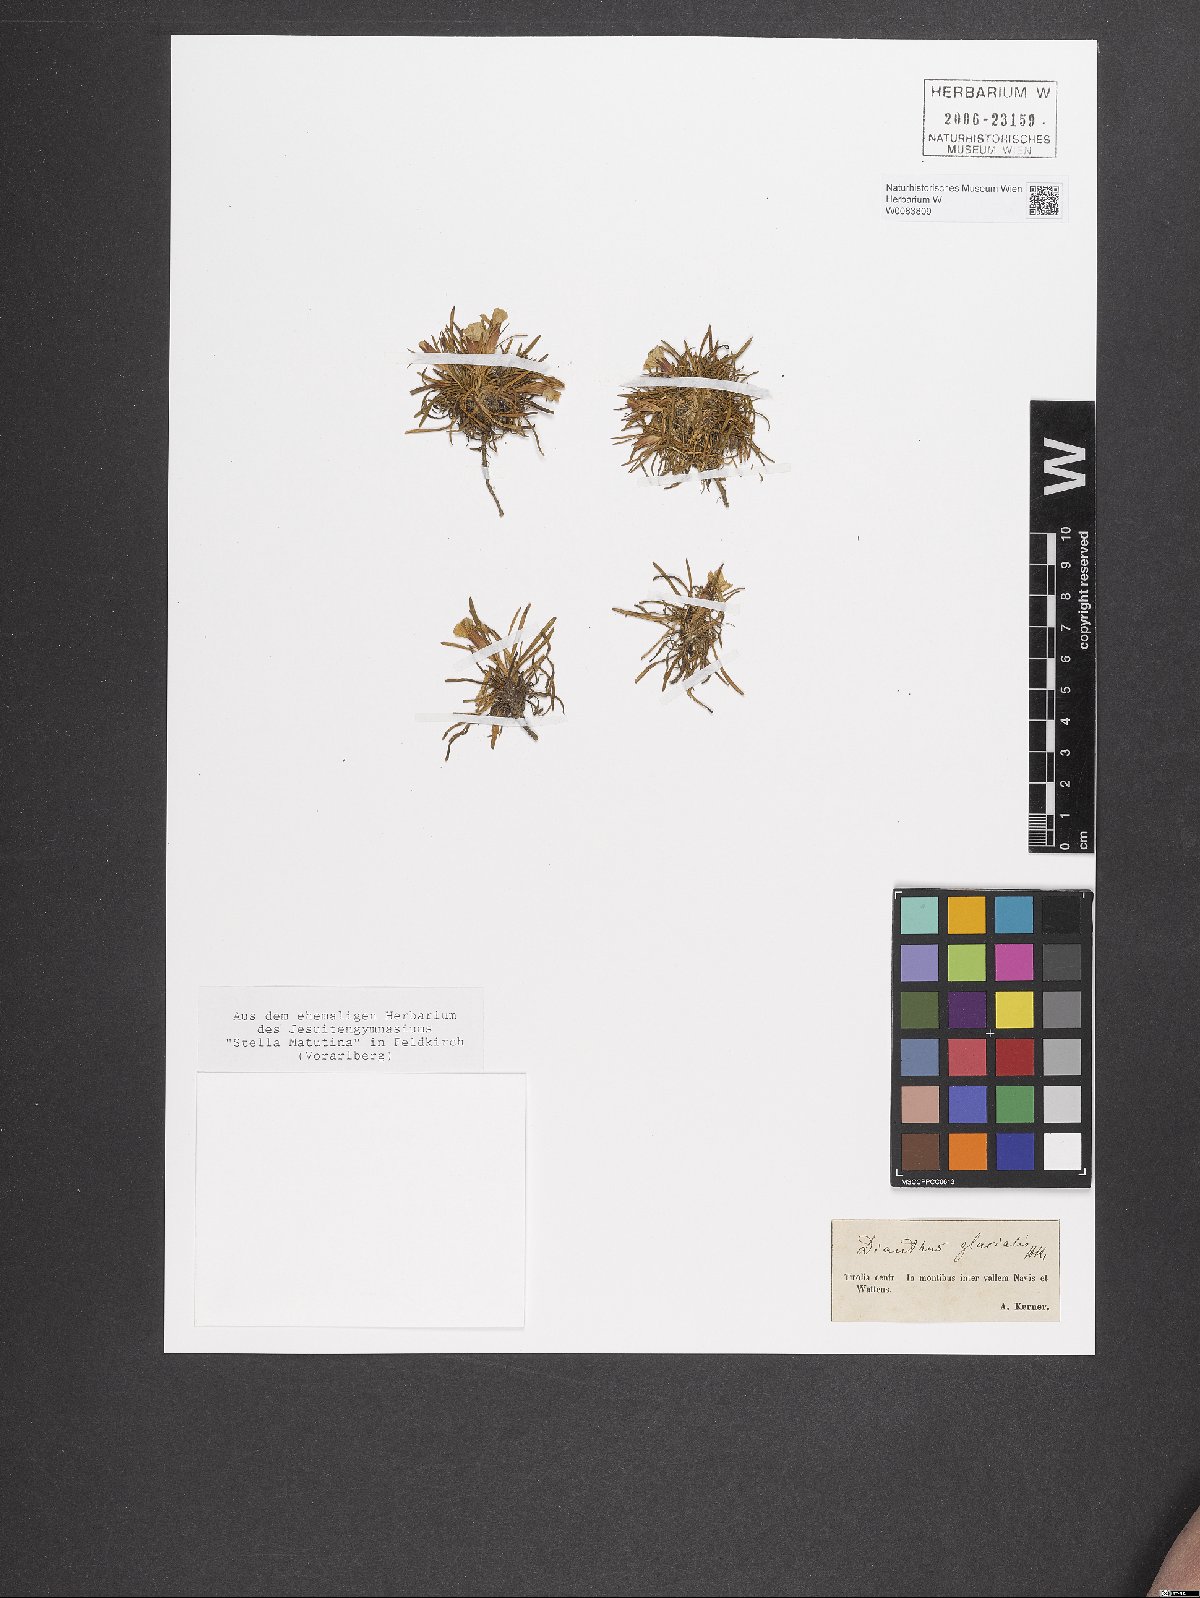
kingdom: Plantae
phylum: Tracheophyta
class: Magnoliopsida
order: Caryophyllales
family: Caryophyllaceae
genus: Dianthus
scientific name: Dianthus glacialis
